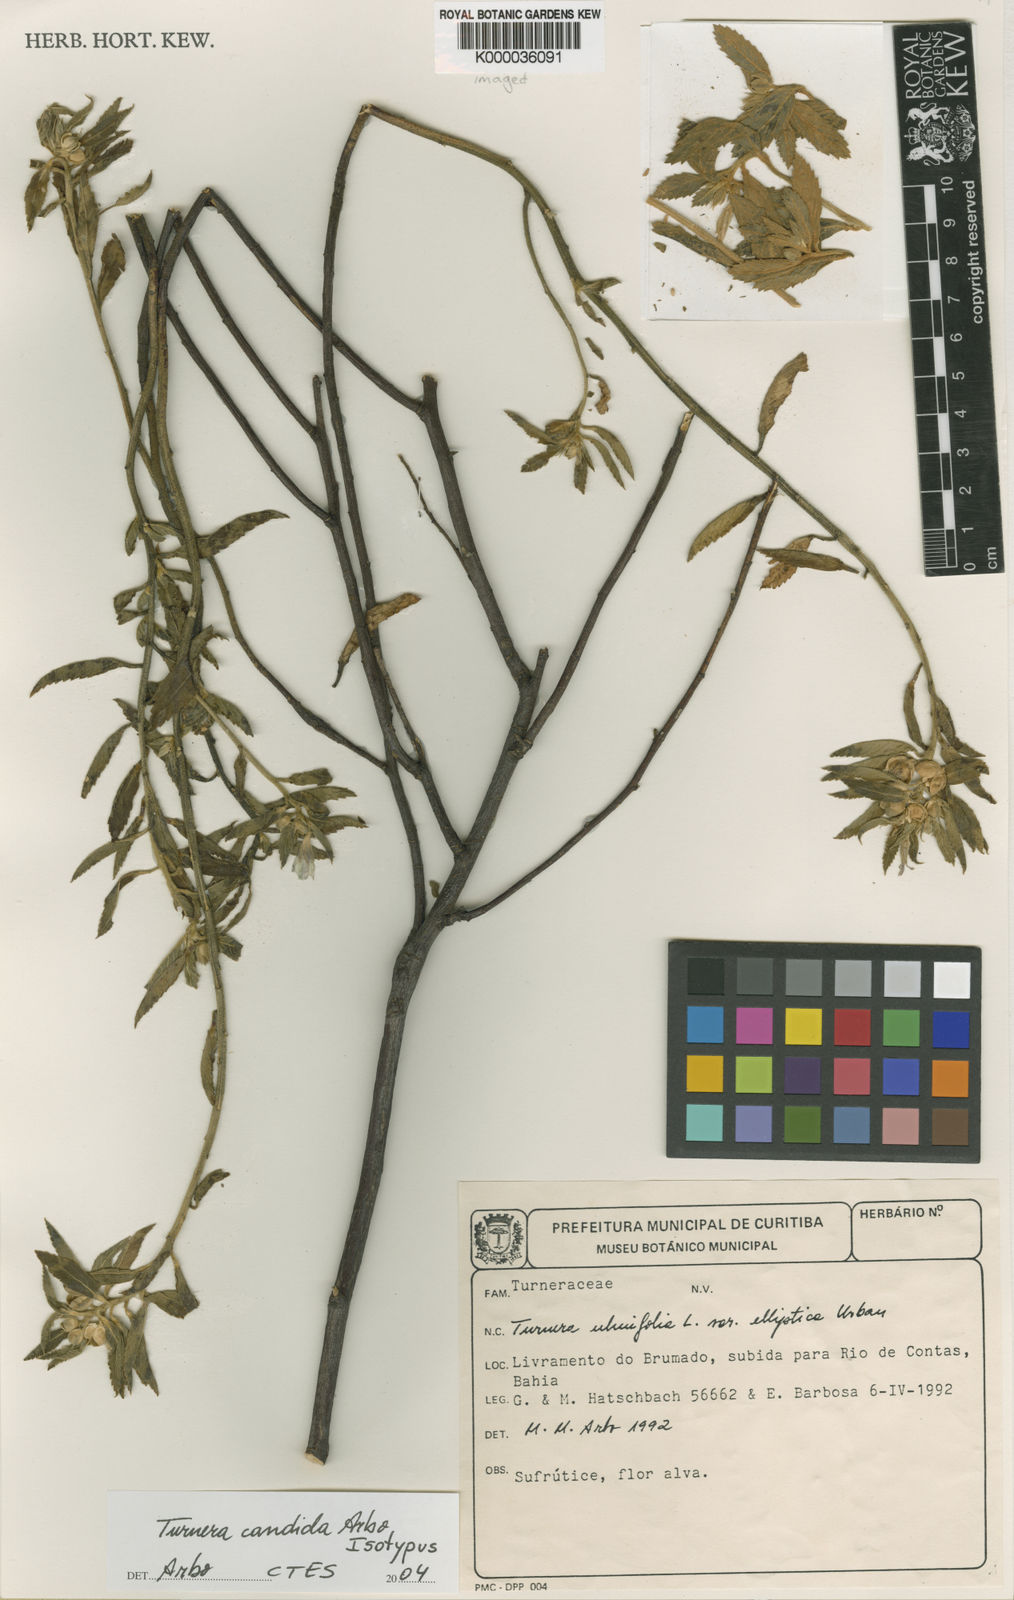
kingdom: Plantae
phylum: Tracheophyta
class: Magnoliopsida
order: Malpighiales
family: Turneraceae
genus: Turnera
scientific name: Turnera candida
